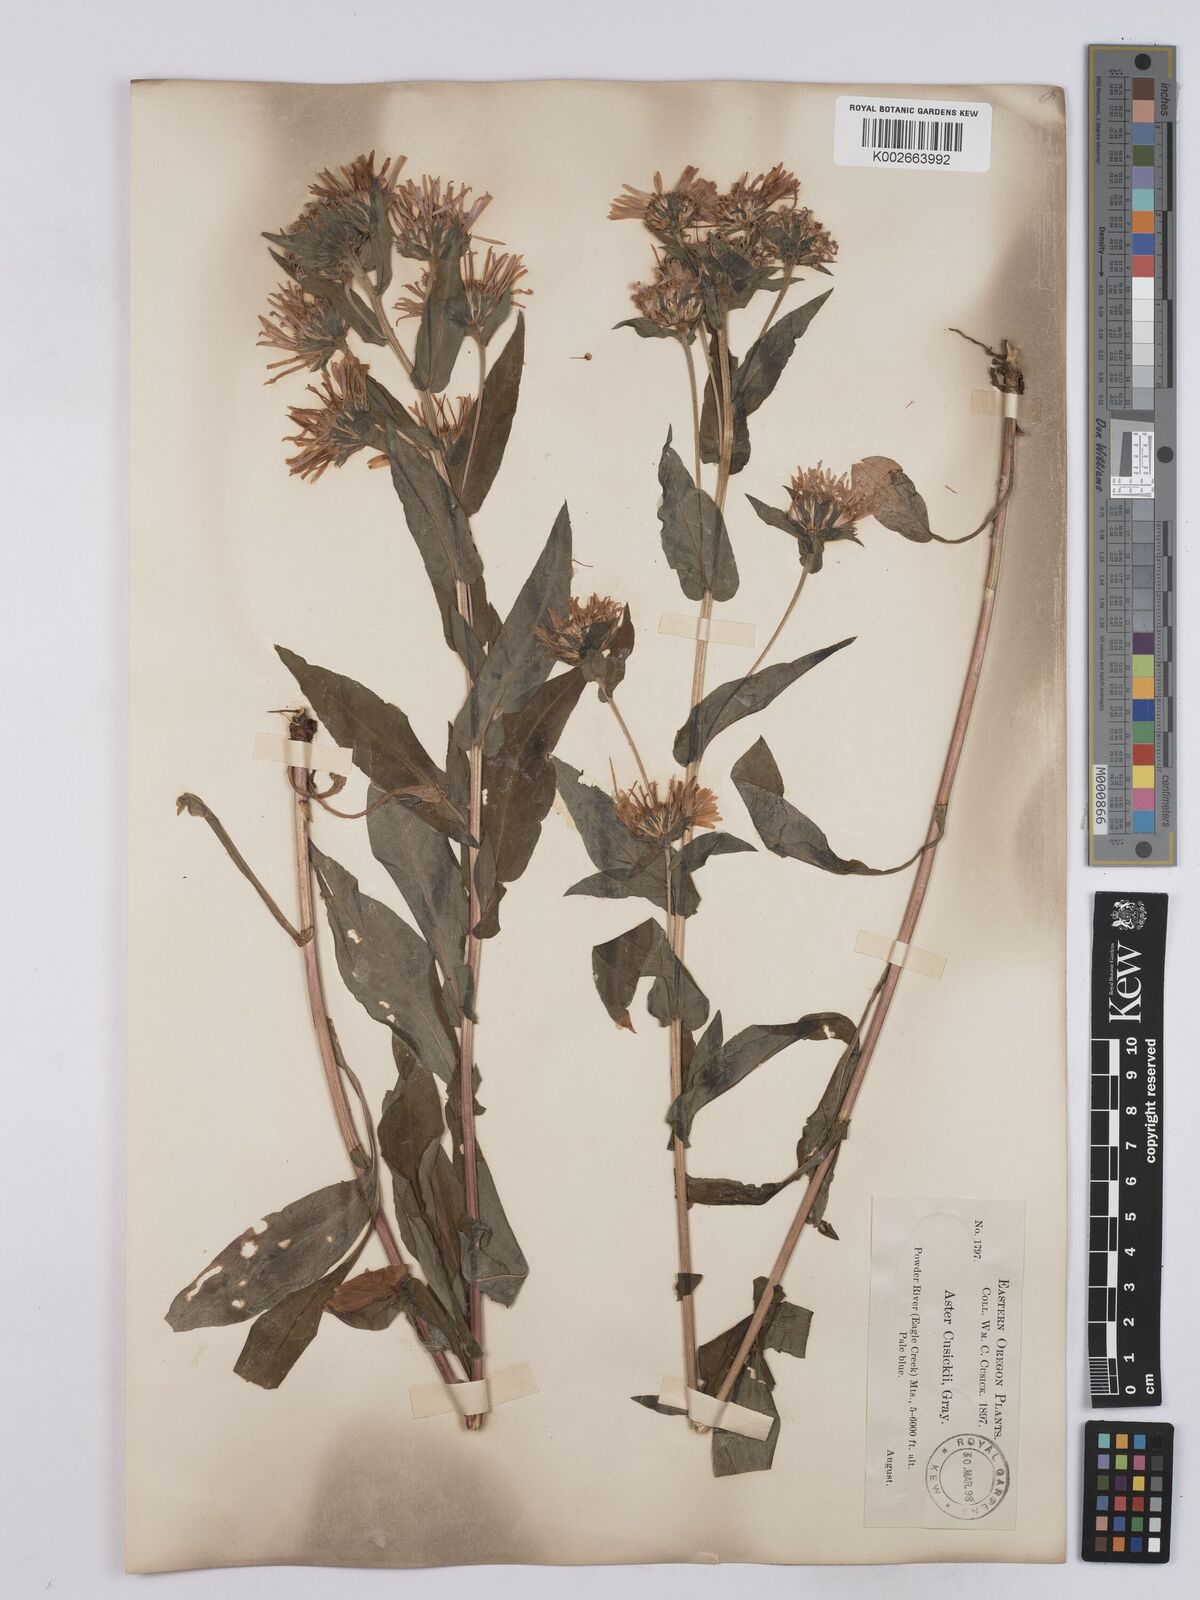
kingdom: Plantae
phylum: Tracheophyta
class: Magnoliopsida
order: Asterales
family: Asteraceae
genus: Symphyotrichum
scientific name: Symphyotrichum foliaceum
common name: Leafy aster
